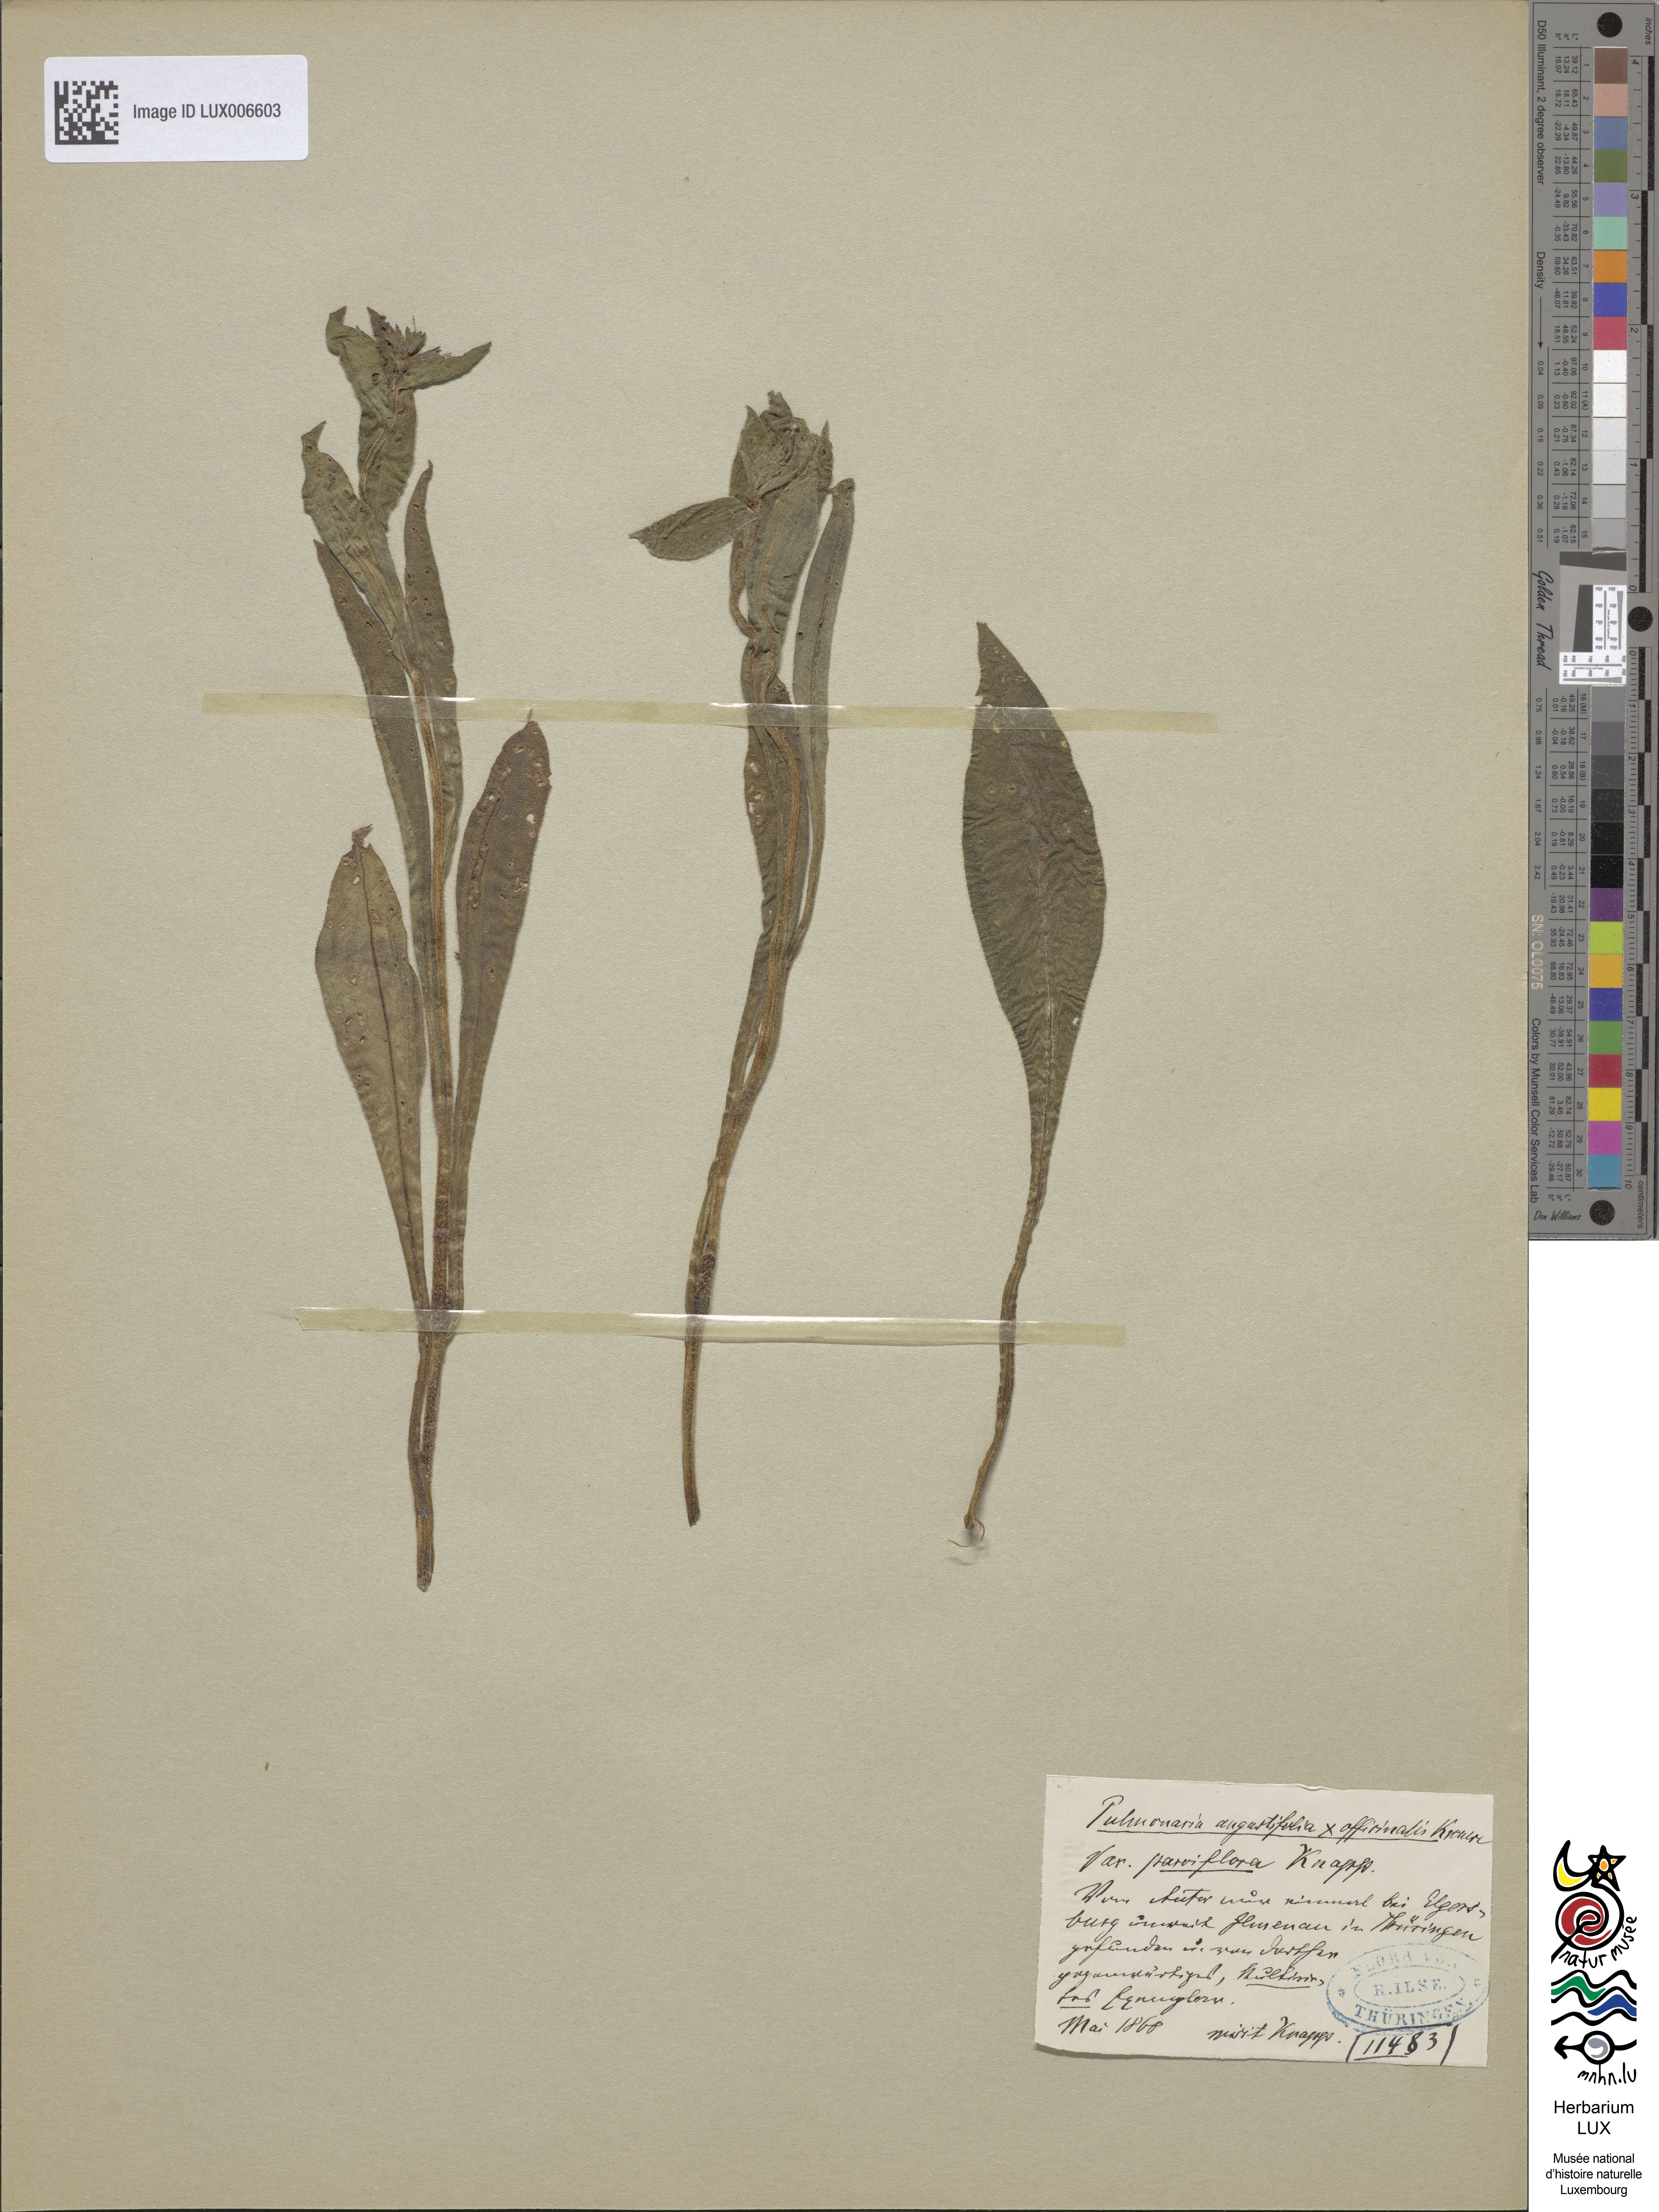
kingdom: Plantae
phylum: Tracheophyta
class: Magnoliopsida
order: Boraginales
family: Boraginaceae
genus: Pulmonaria
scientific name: Pulmonaria longifolia
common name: Narrow-leaved lungwort
